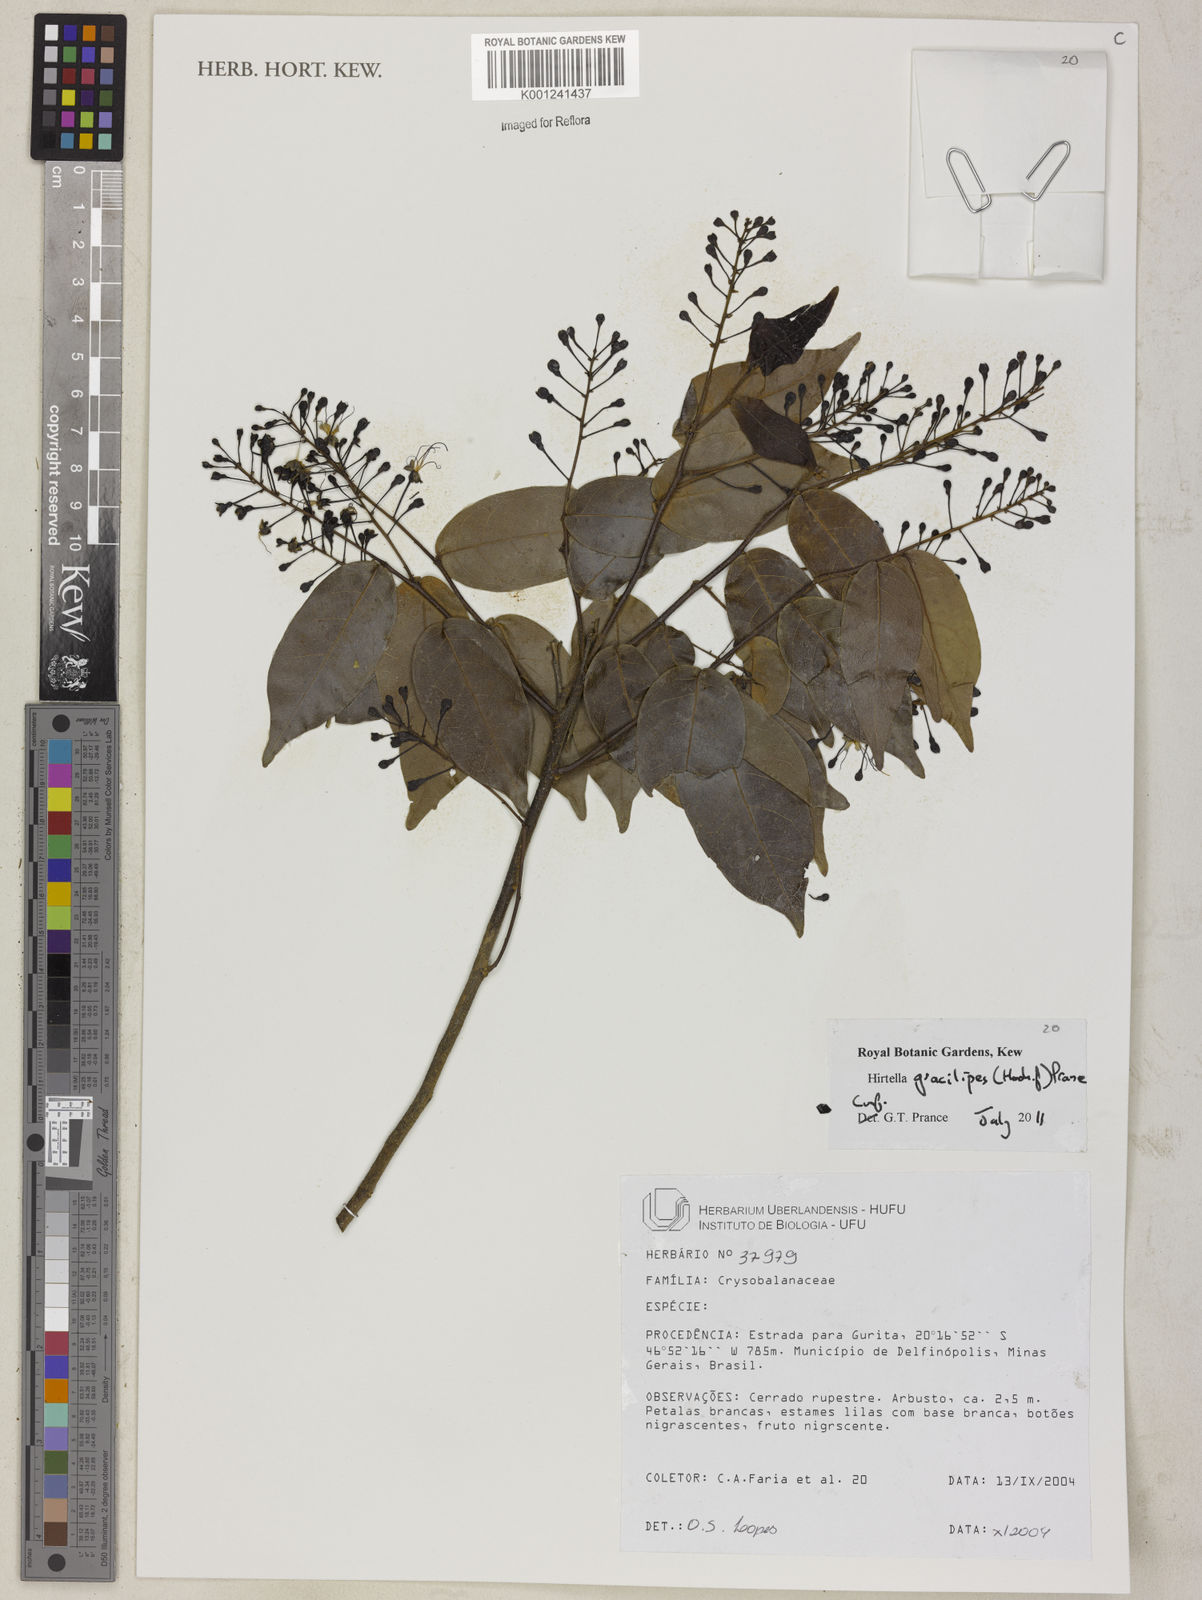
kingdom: Plantae
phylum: Tracheophyta
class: Magnoliopsida
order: Malpighiales
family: Chrysobalanaceae
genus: Hirtella
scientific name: Hirtella gracilipes
